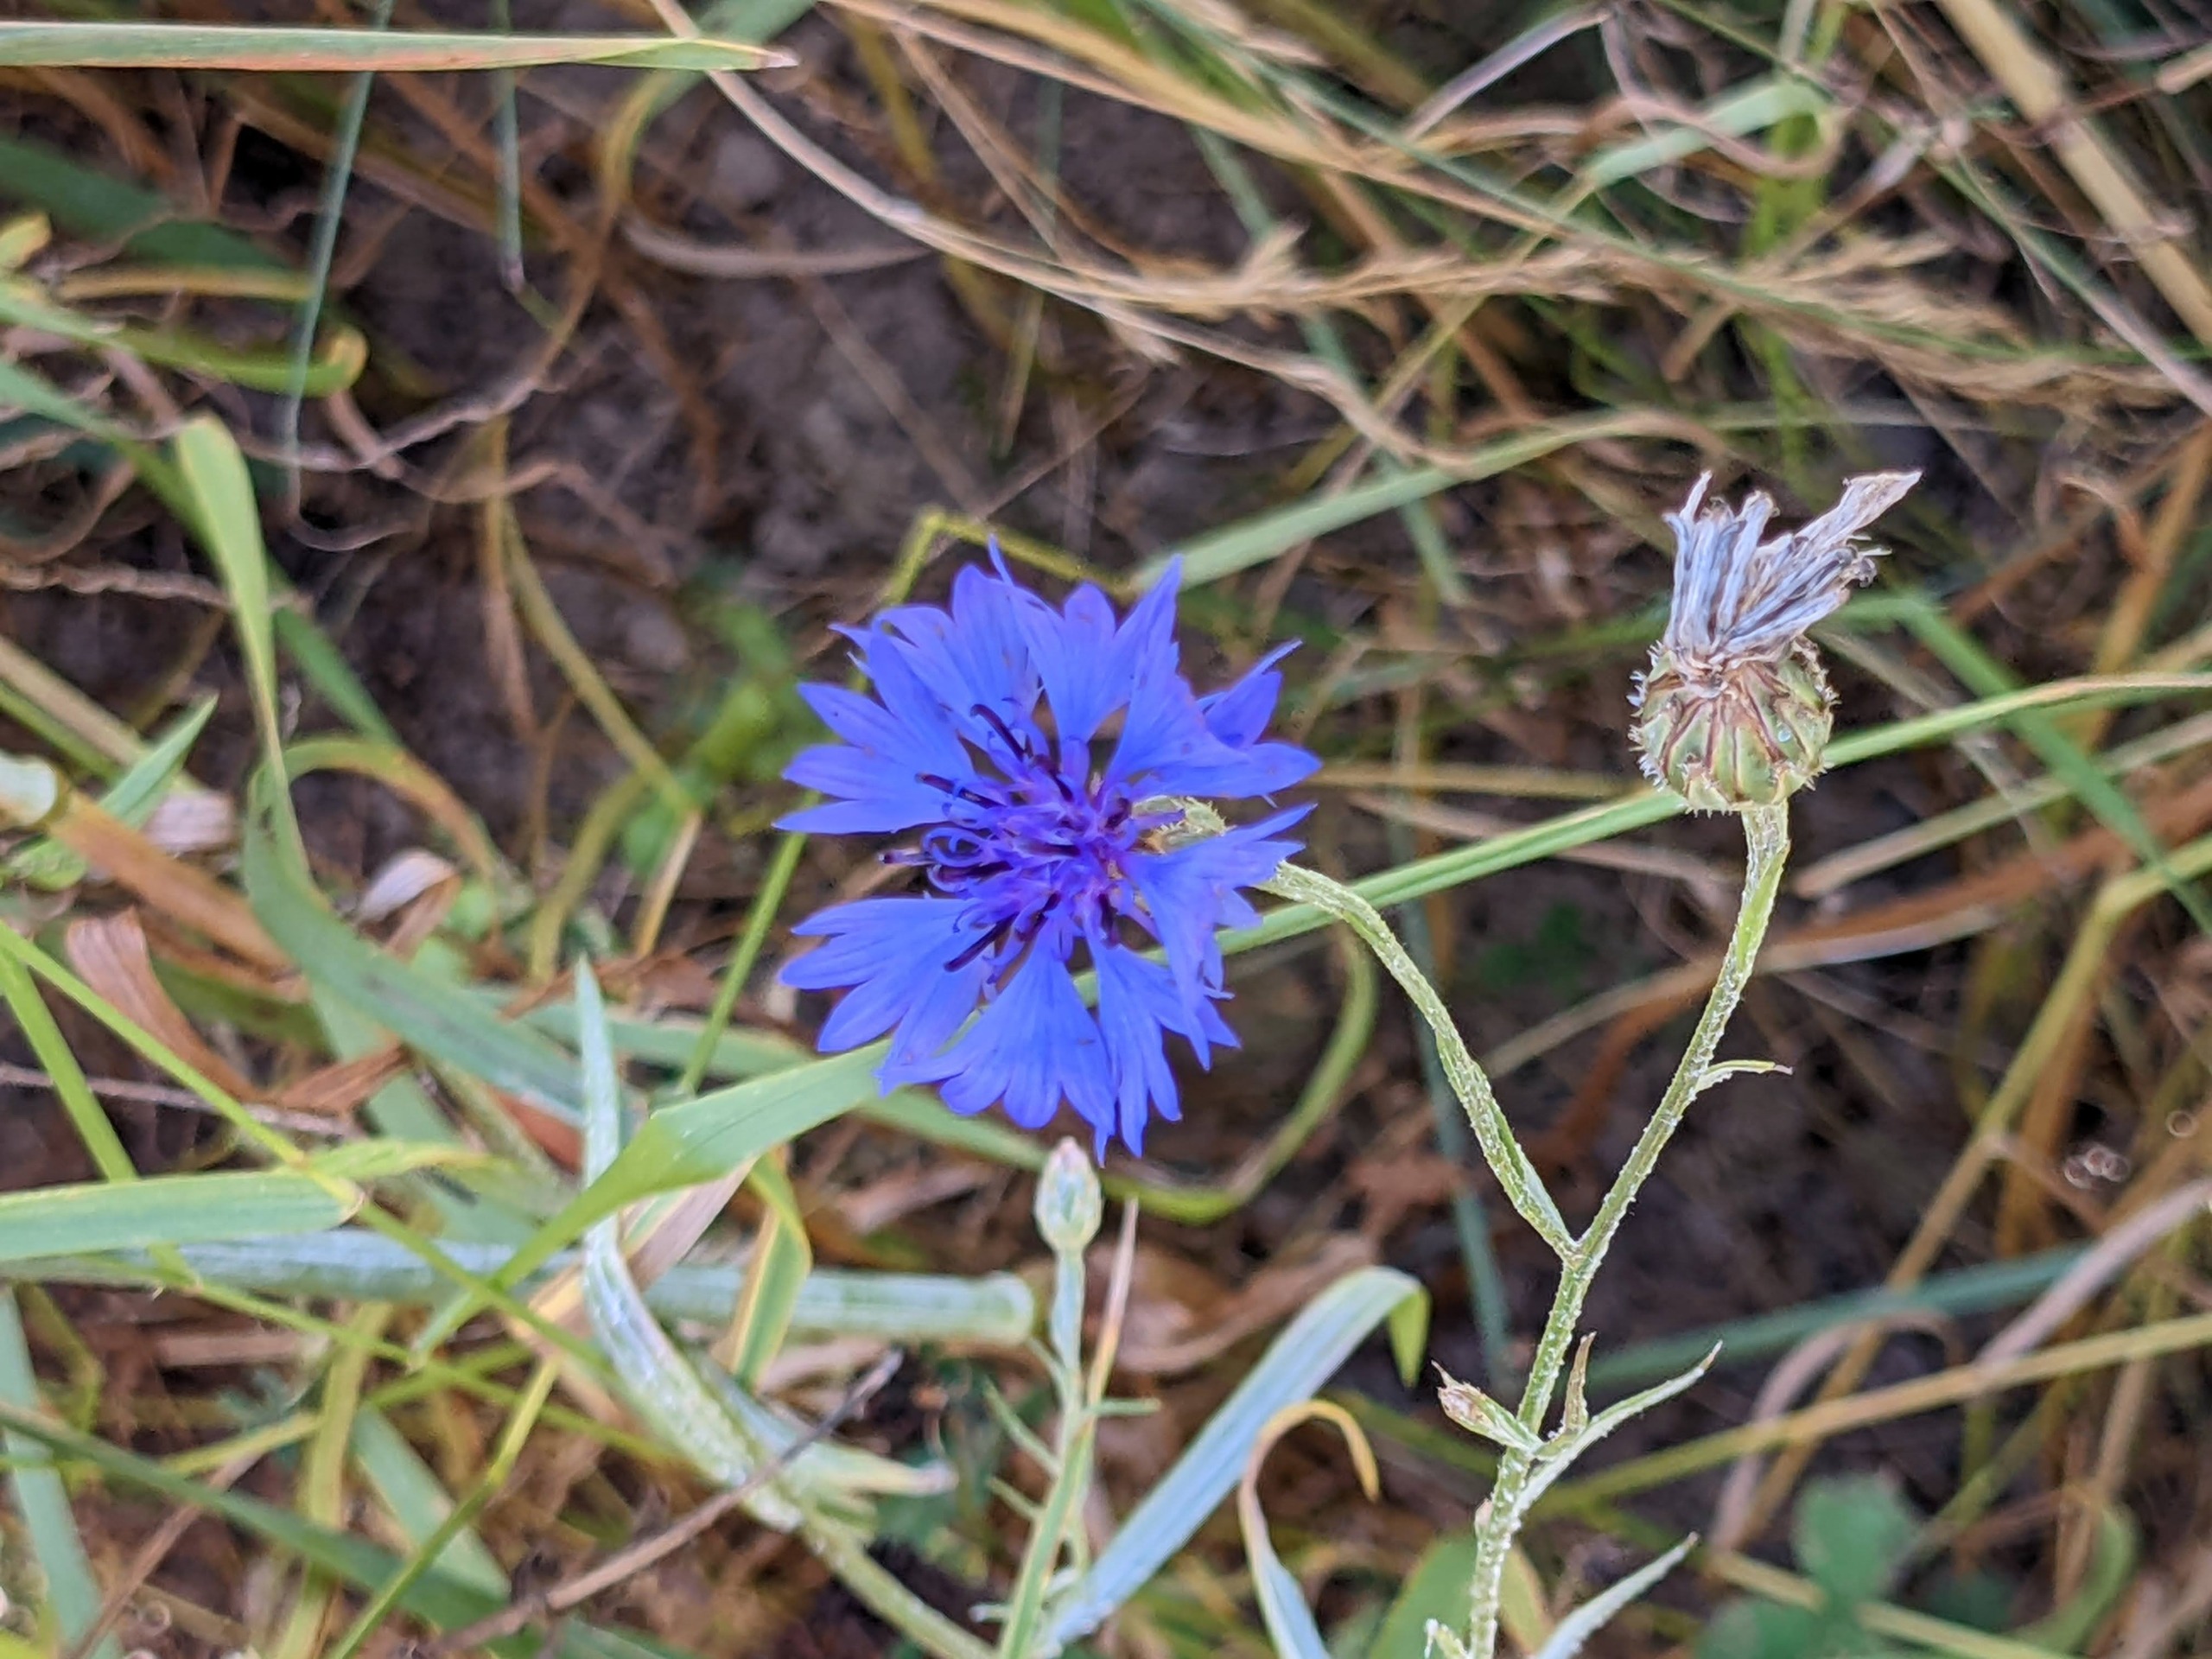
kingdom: Plantae
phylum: Tracheophyta
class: Magnoliopsida
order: Asterales
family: Asteraceae
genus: Centaurea
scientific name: Centaurea cyanus
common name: Kornblomst
